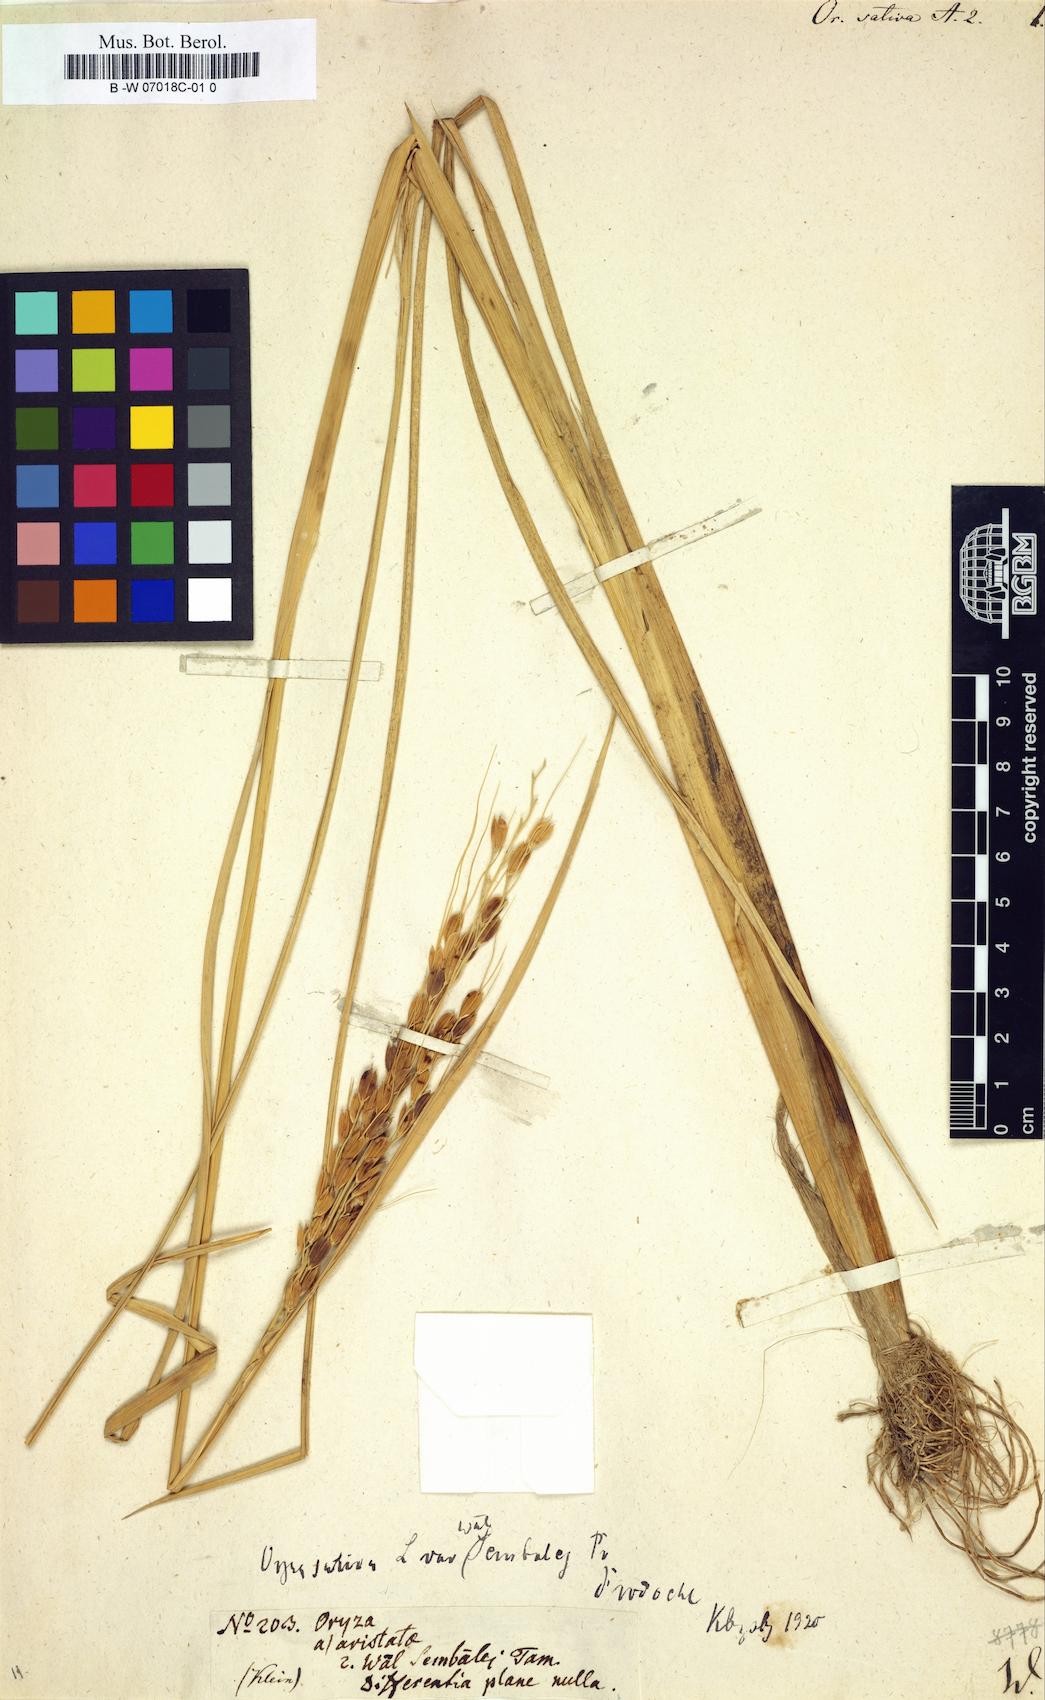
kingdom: Plantae
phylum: Tracheophyta
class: Liliopsida
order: Poales
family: Poaceae
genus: Oryza
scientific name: Oryza sativa
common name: Rice
